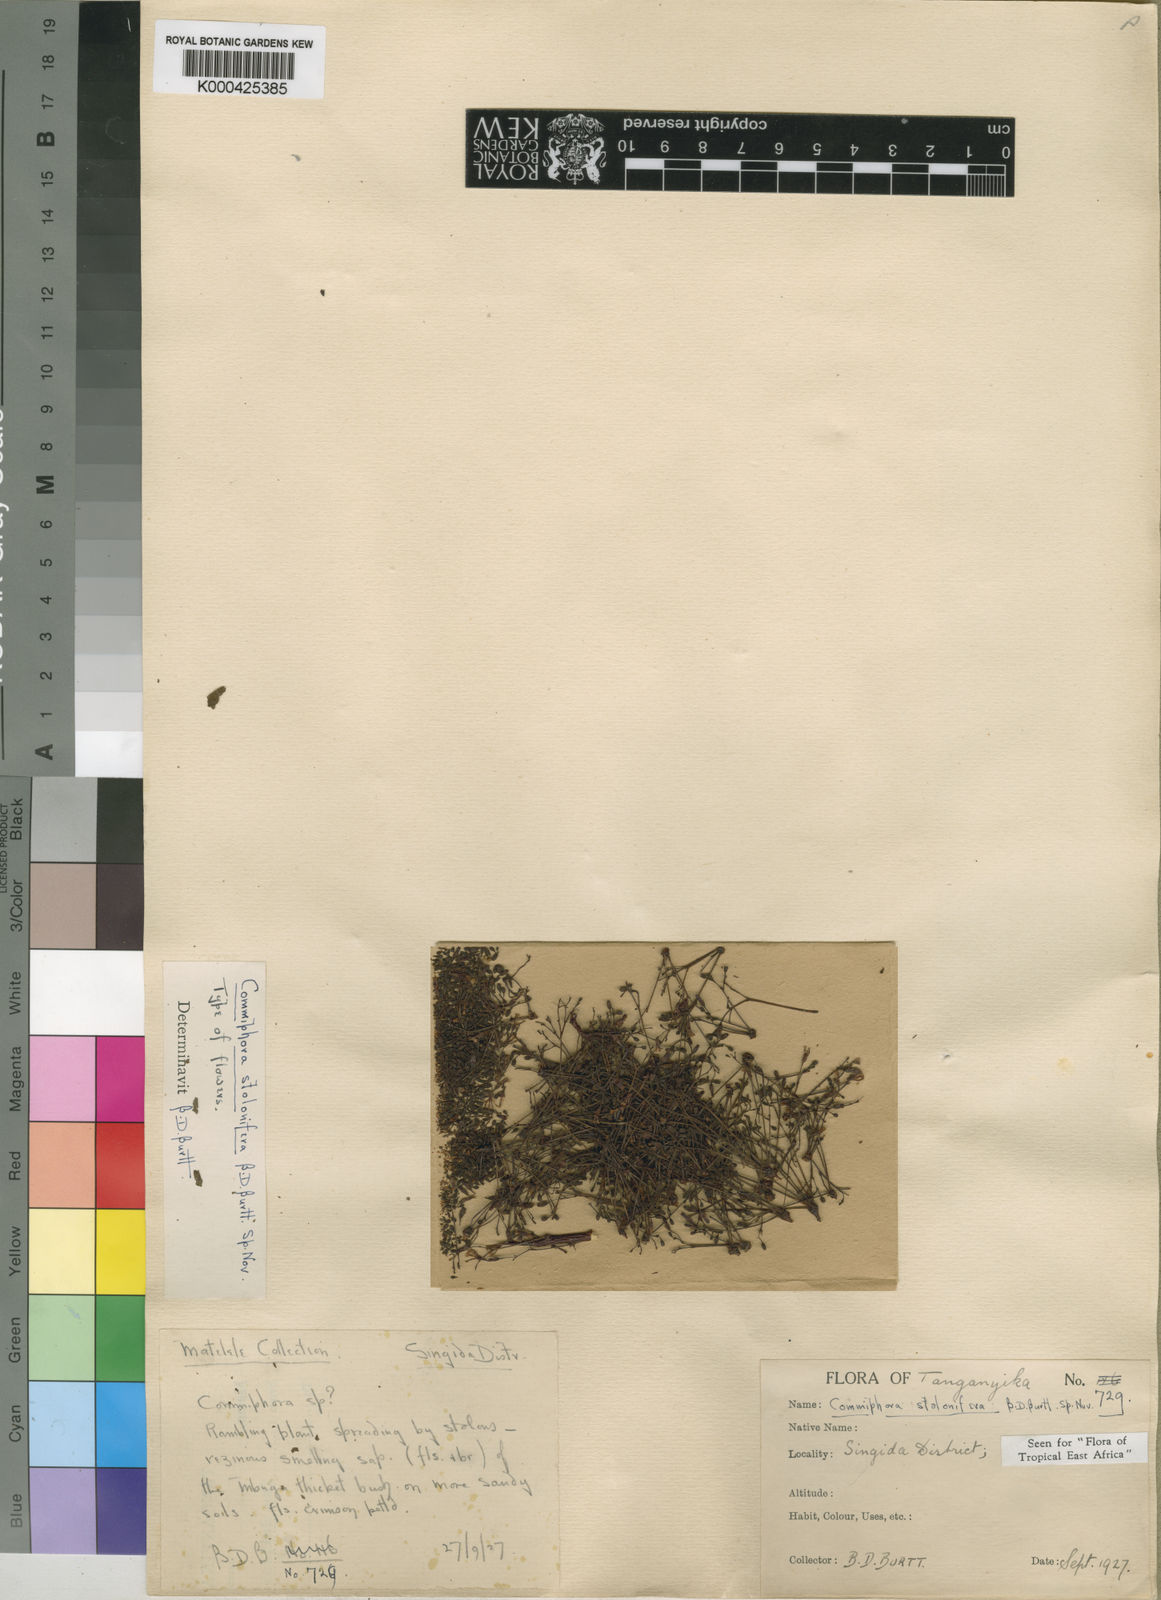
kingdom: Plantae
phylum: Tracheophyta
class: Magnoliopsida
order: Sapindales
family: Burseraceae
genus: Commiphora
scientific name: Commiphora stolonifera
